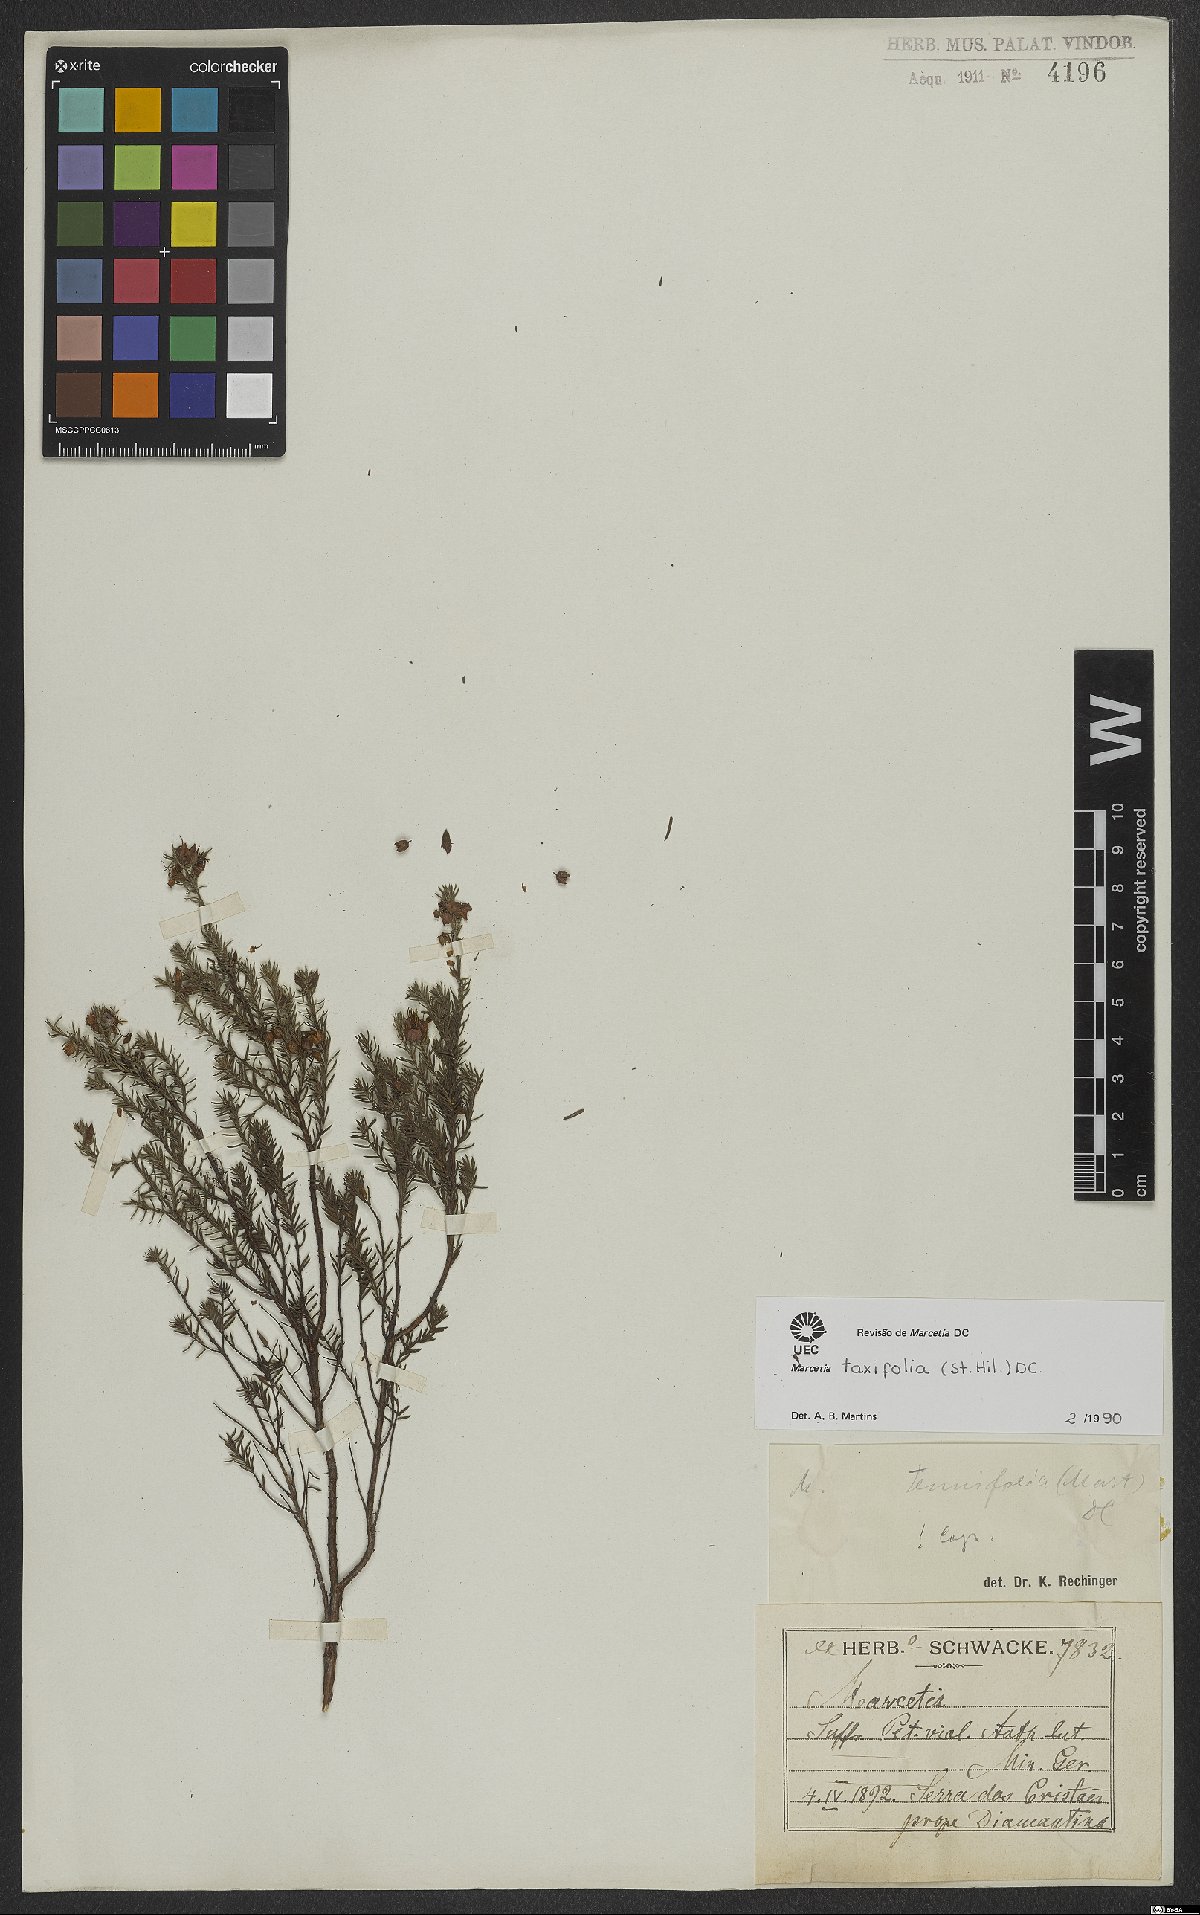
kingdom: Plantae
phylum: Tracheophyta
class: Magnoliopsida
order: Myrtales
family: Melastomataceae
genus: Marcetia
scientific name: Marcetia taxifolia
